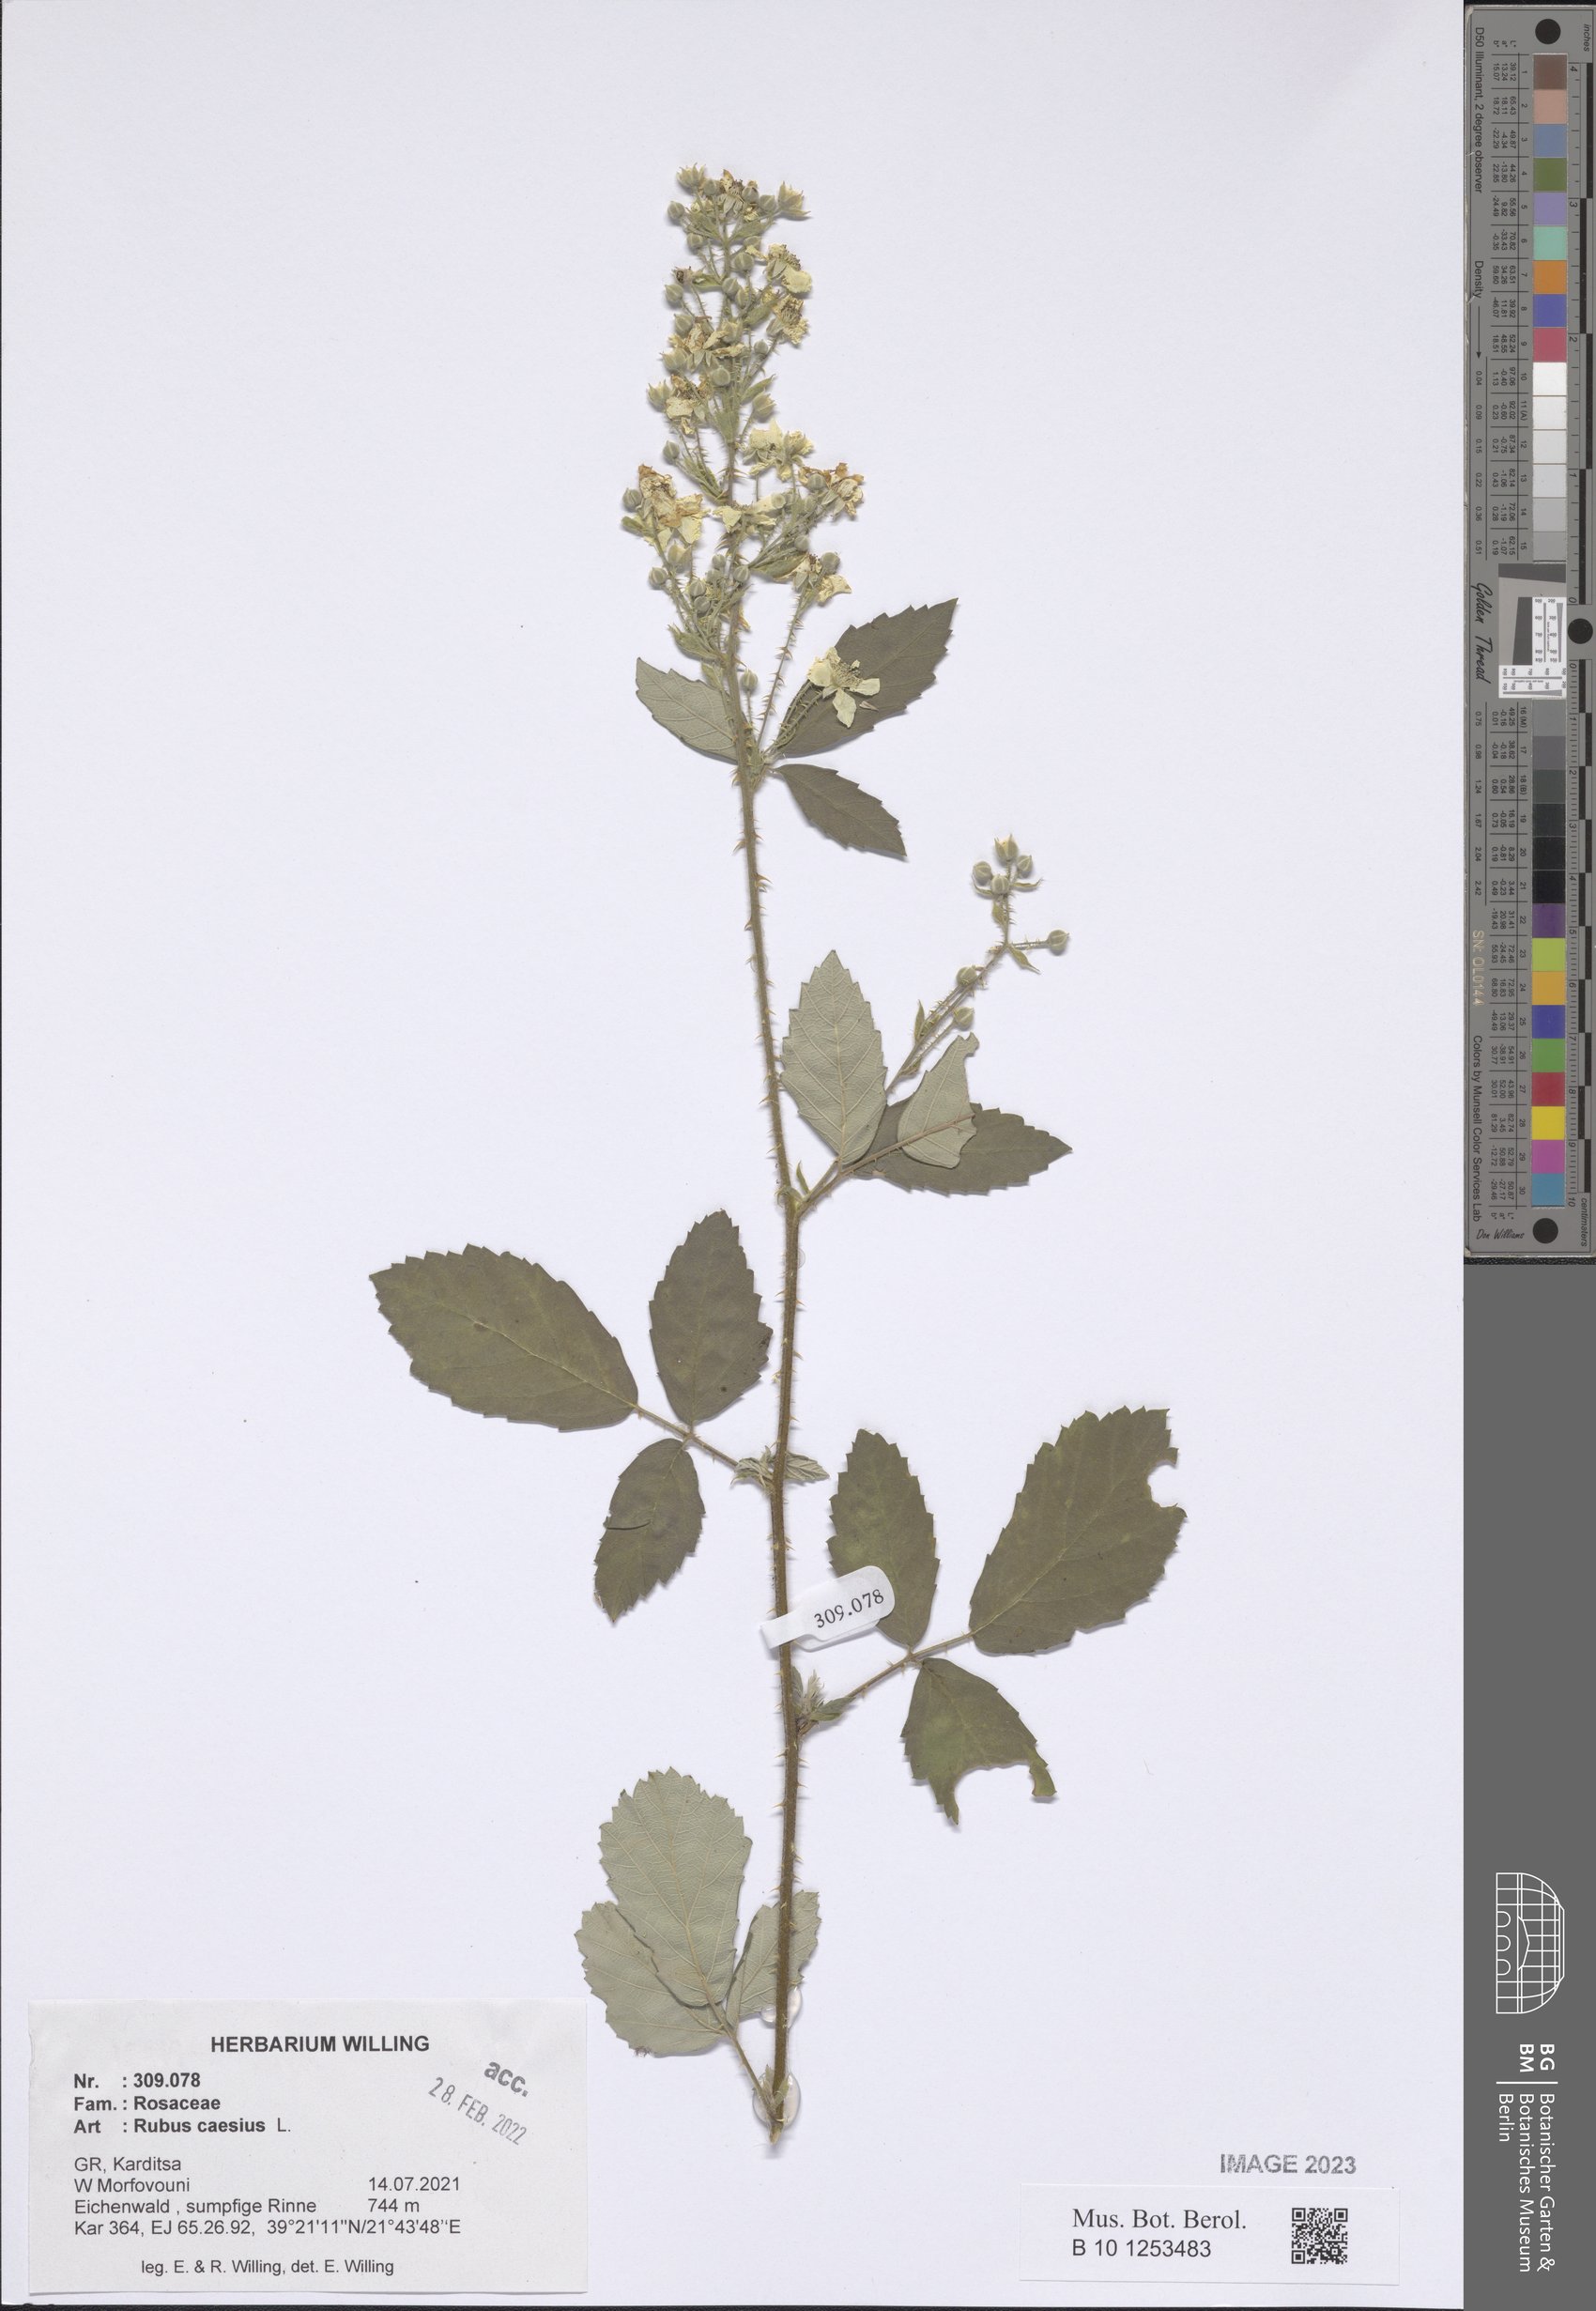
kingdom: Plantae
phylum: Tracheophyta
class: Magnoliopsida
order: Rosales
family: Rosaceae
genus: Rubus
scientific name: Rubus caesius
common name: Dewberry
